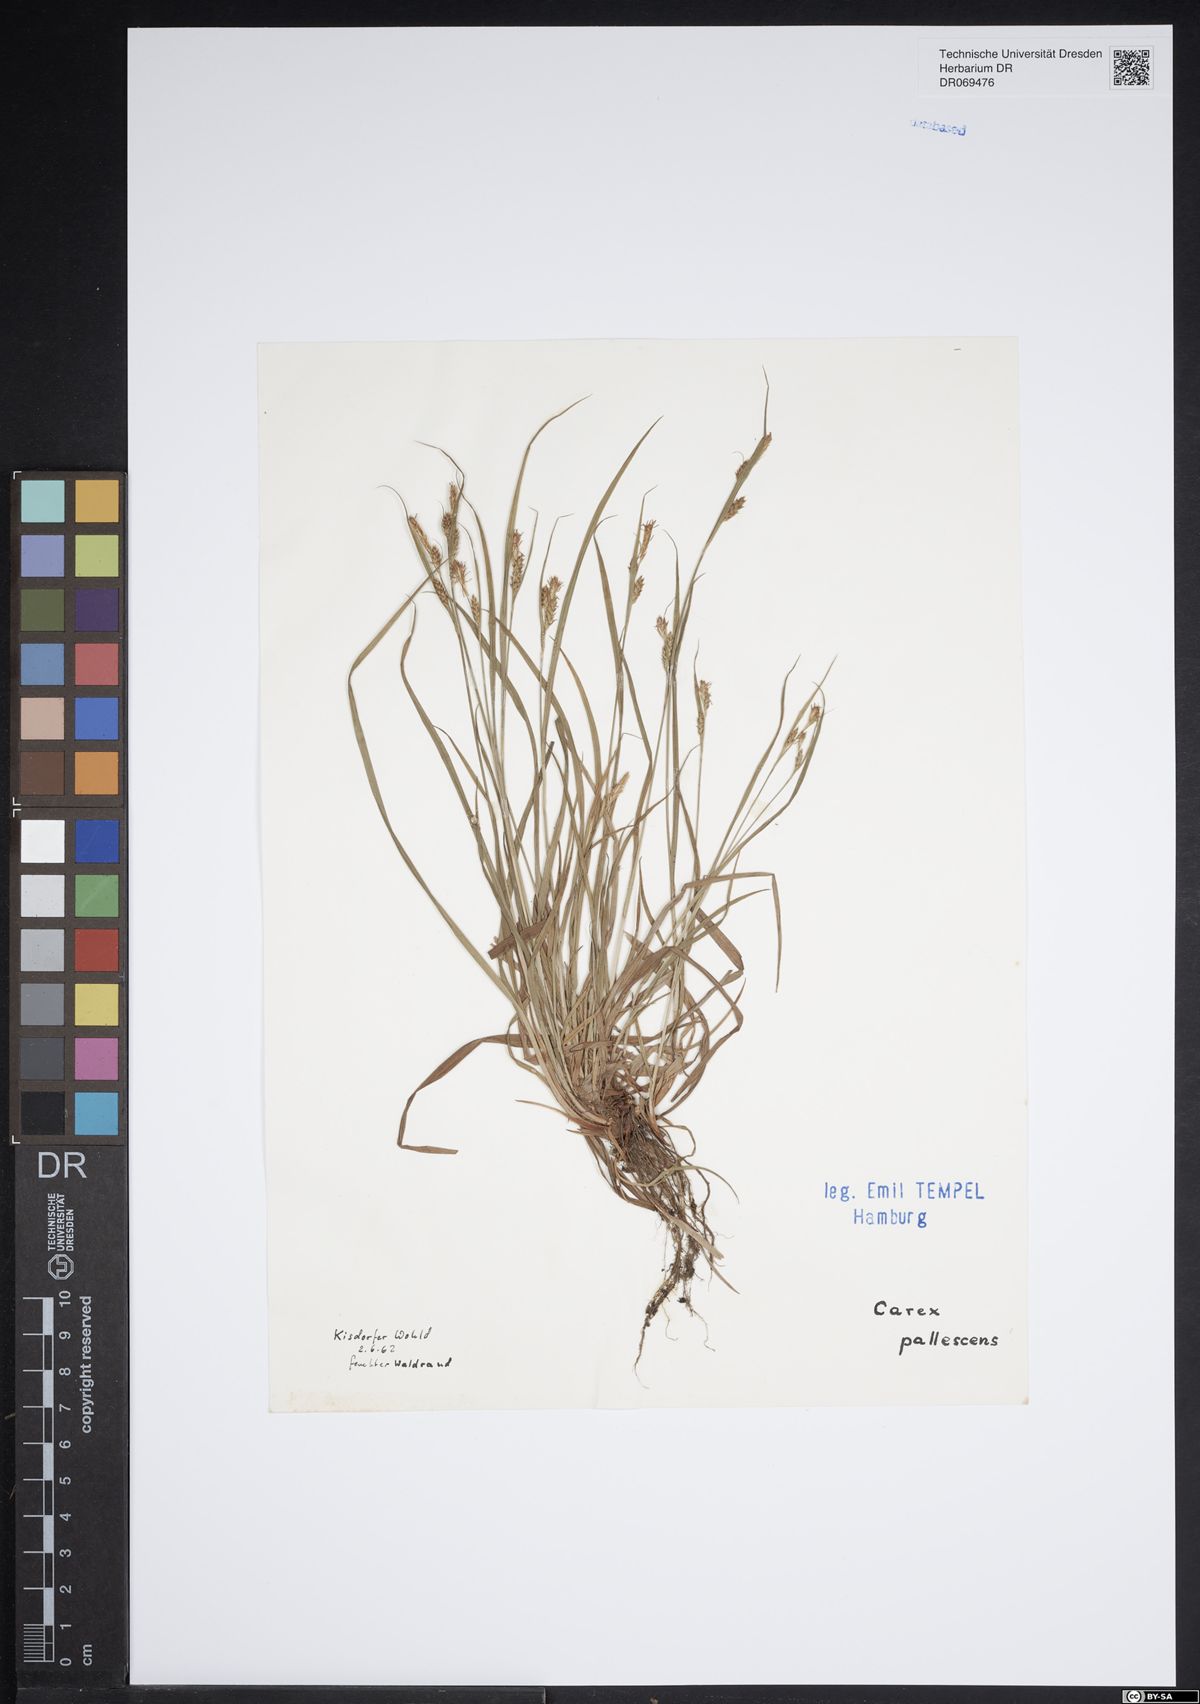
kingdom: Plantae
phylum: Tracheophyta
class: Liliopsida
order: Poales
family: Cyperaceae
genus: Carex
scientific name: Carex pallescens
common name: Pale sedge
